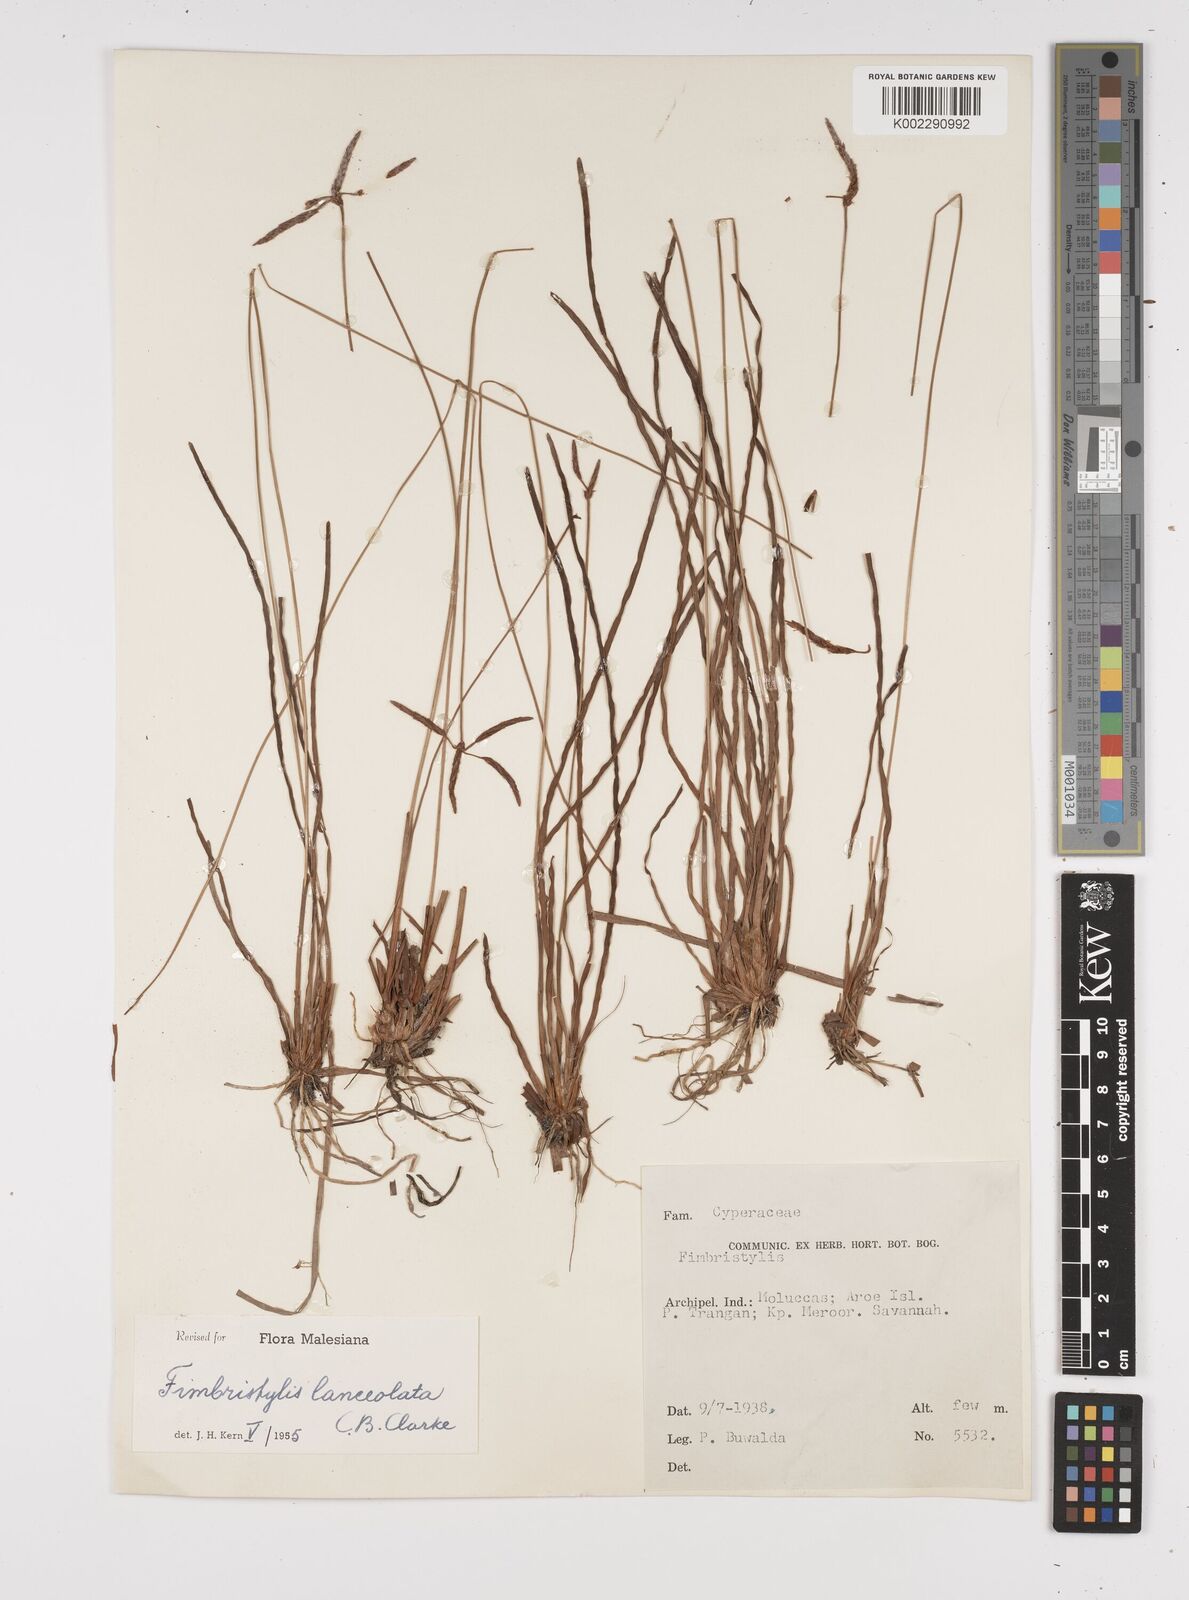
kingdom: Plantae
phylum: Tracheophyta
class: Liliopsida
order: Poales
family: Cyperaceae
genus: Fimbristylis
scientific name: Fimbristylis lanceolata
